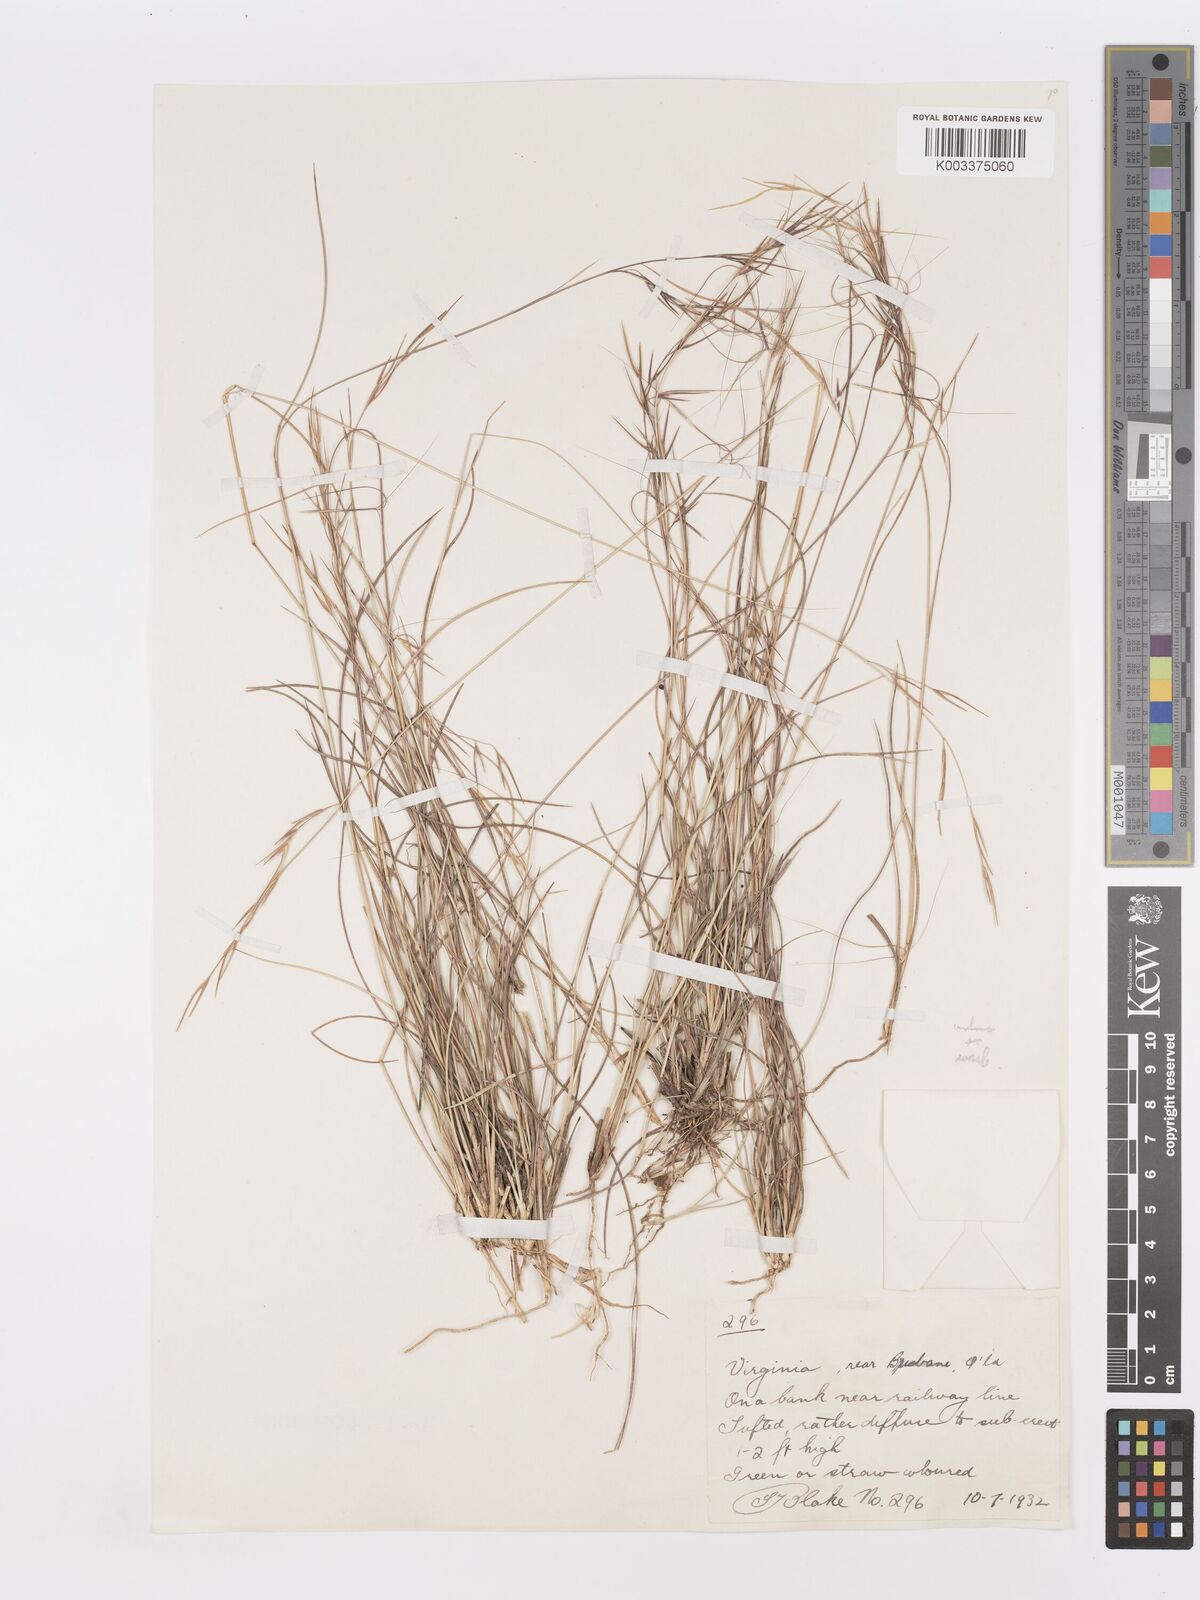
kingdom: Plantae
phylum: Tracheophyta
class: Liliopsida
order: Poales
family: Poaceae
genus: Aristida
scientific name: Aristida warburgii
